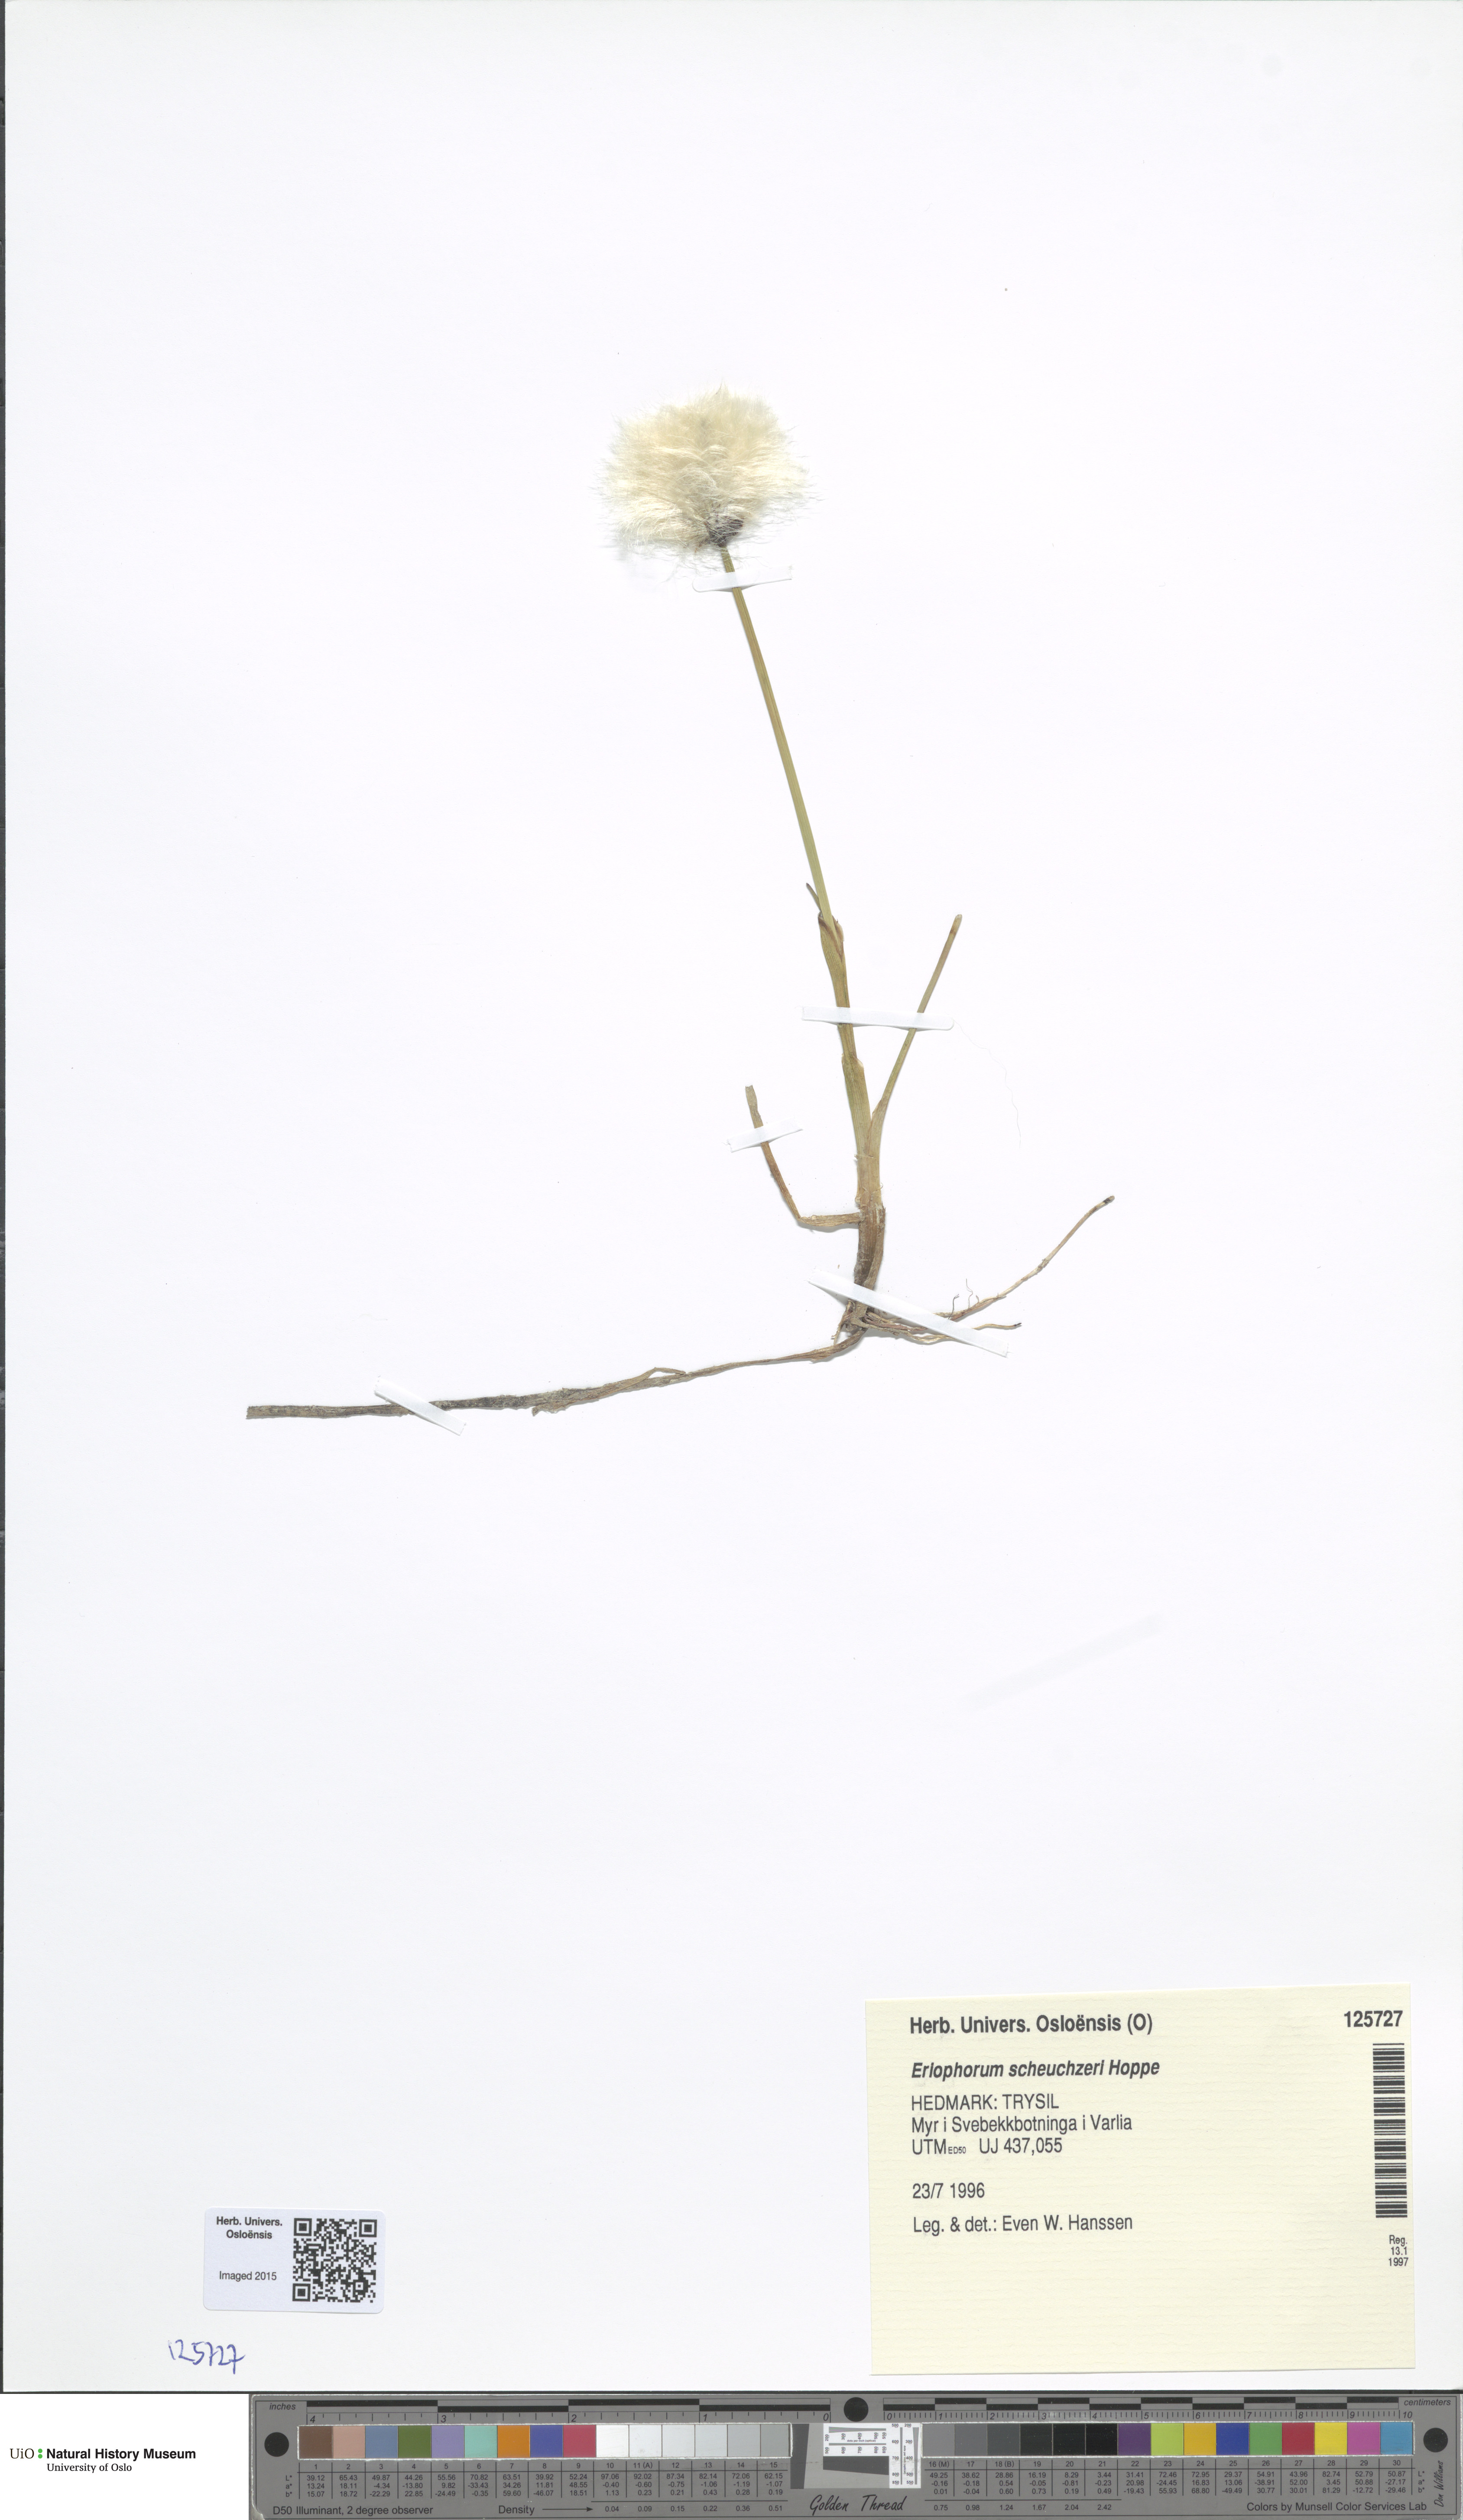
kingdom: Plantae
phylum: Tracheophyta
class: Liliopsida
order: Poales
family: Cyperaceae
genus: Eriophorum
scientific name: Eriophorum scheuchzeri
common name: Scheuchzer's cottongrass
